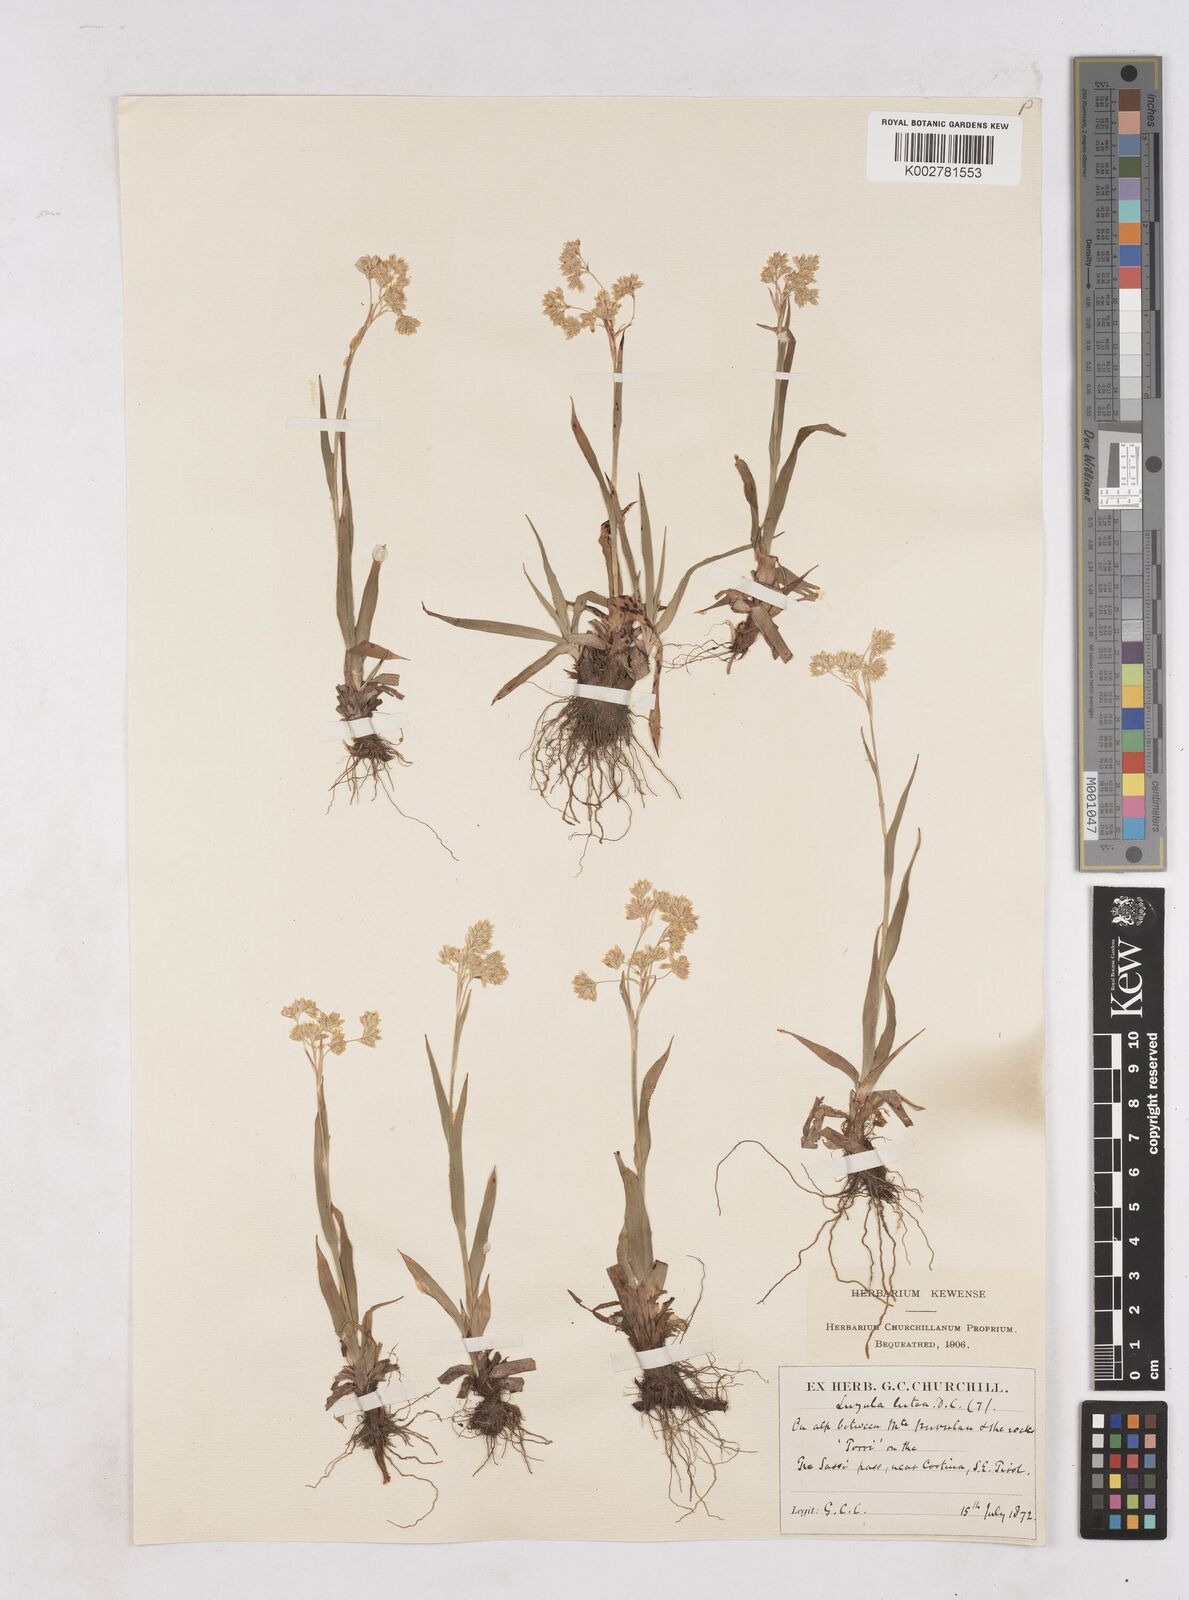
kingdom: Plantae
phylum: Tracheophyta
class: Liliopsida
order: Poales
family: Juncaceae
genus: Luzula
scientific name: Luzula lutea
